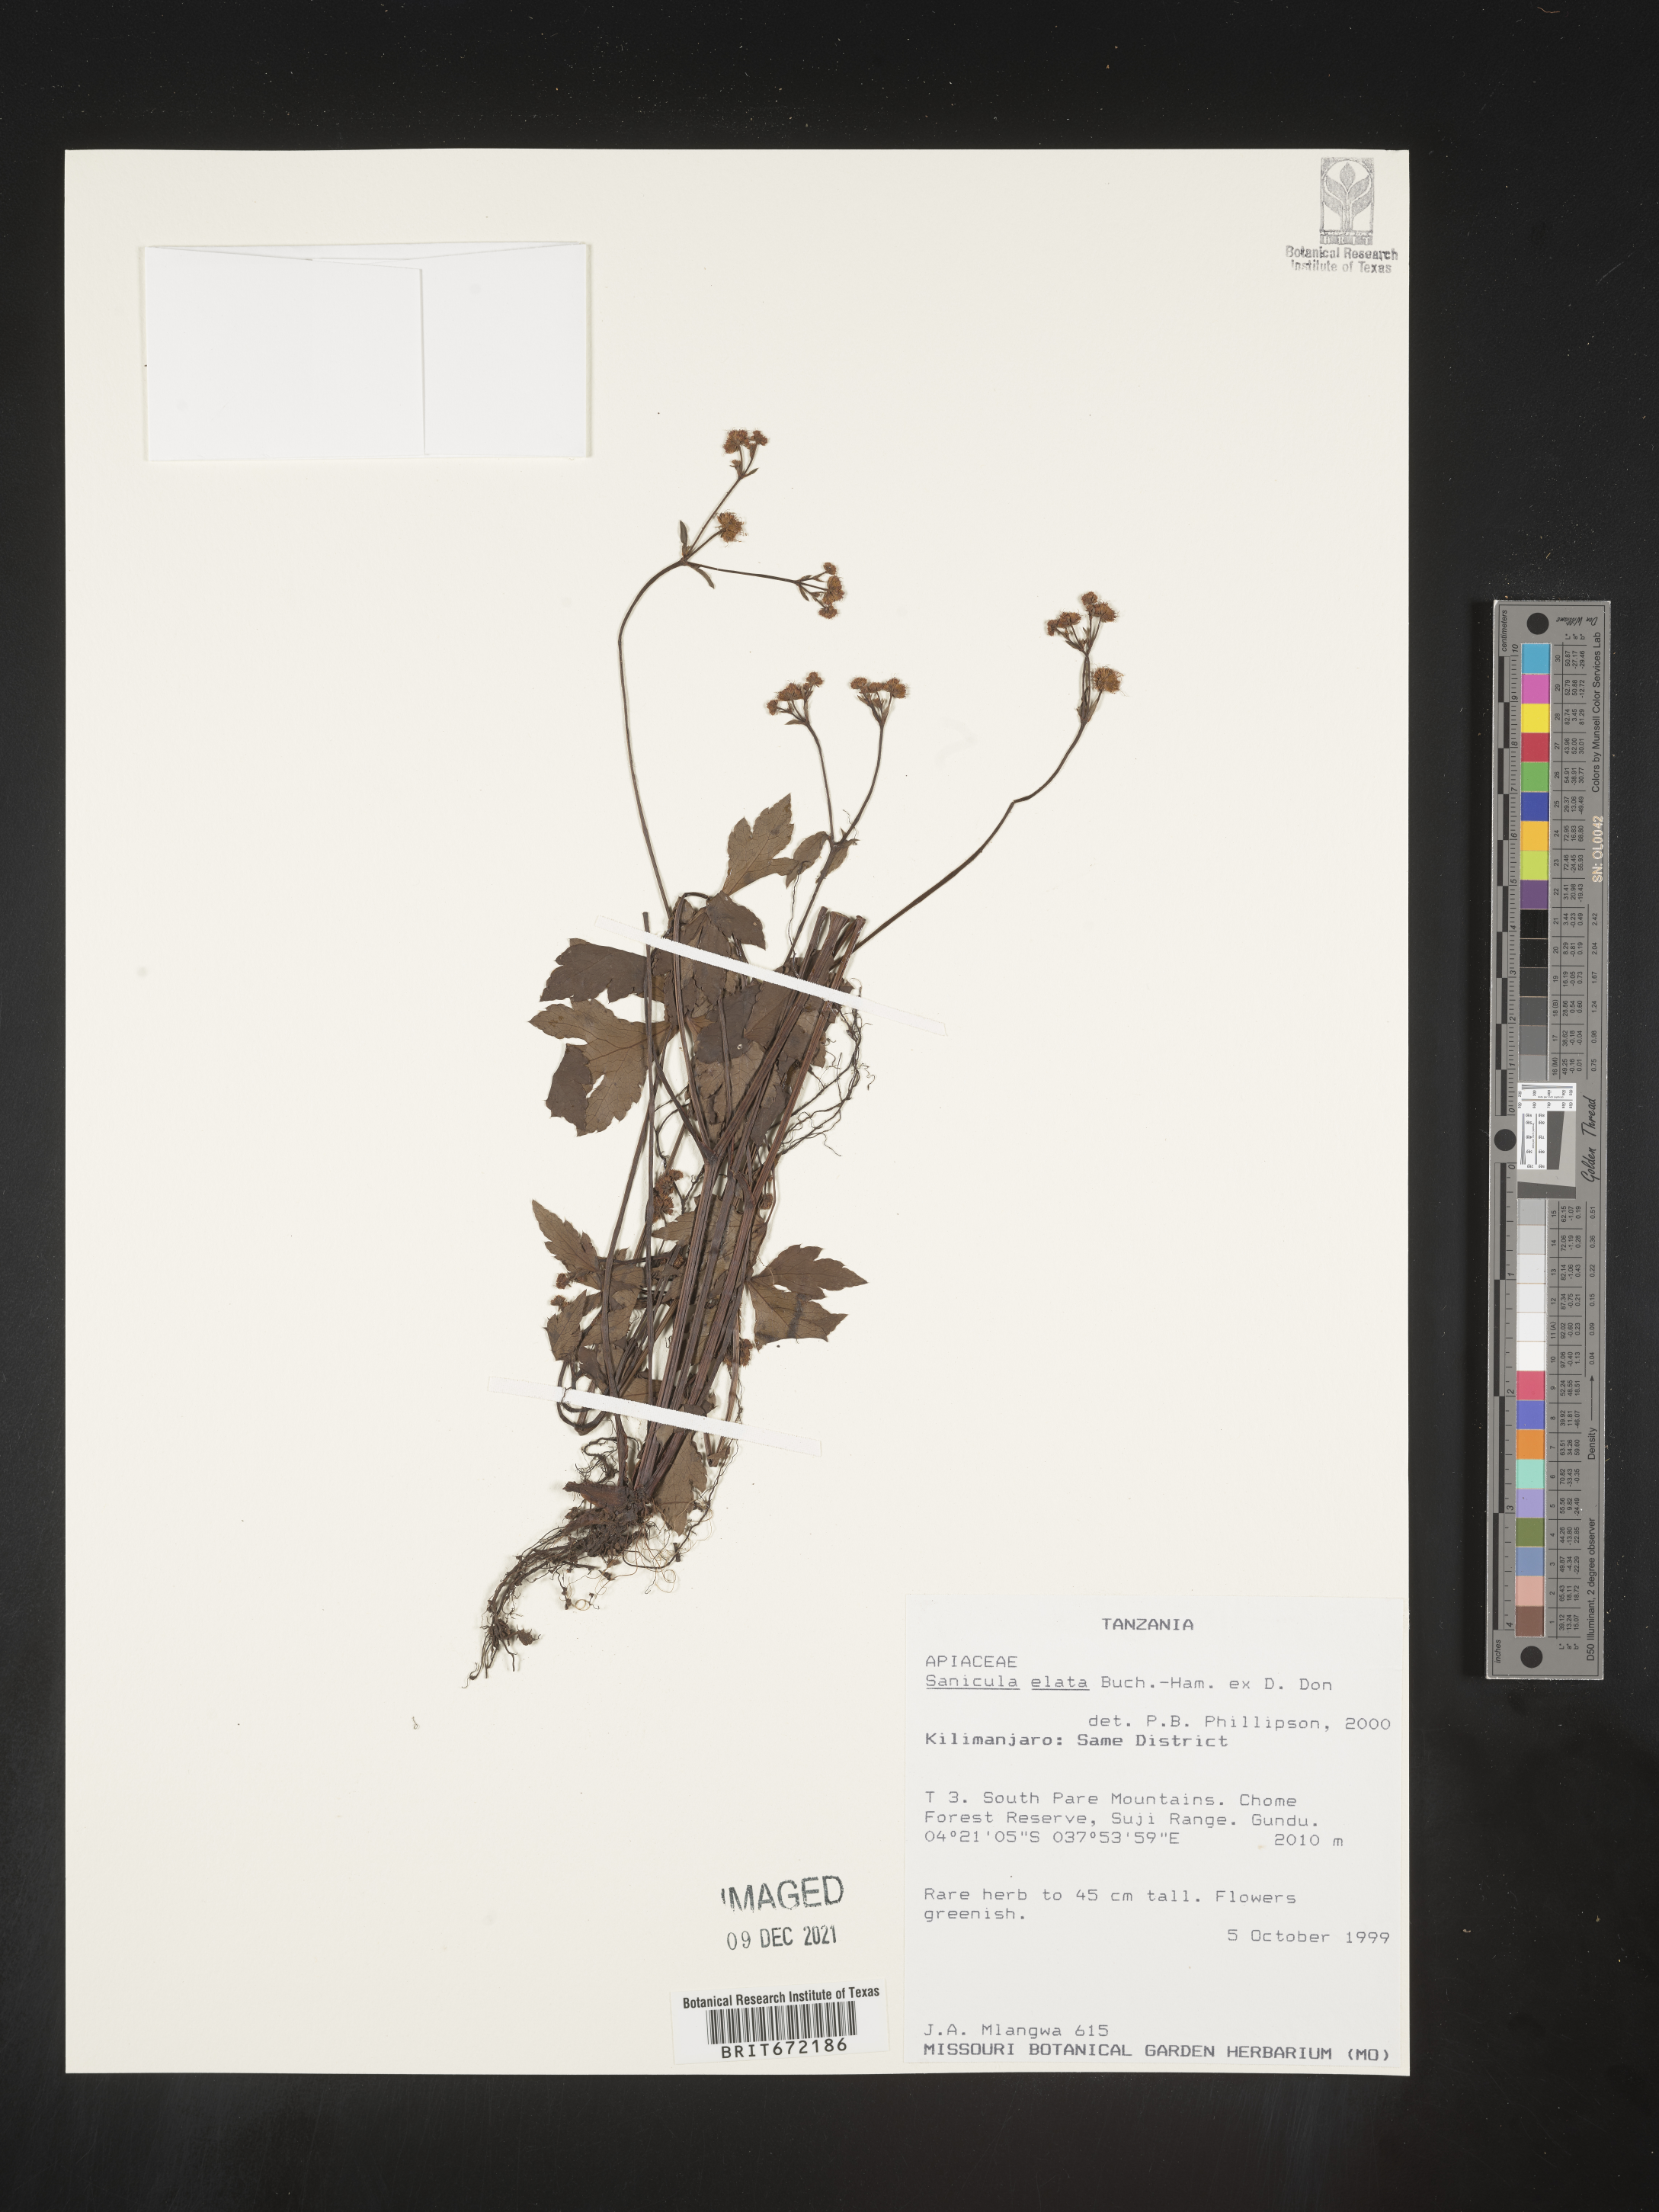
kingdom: Plantae
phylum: Tracheophyta
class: Magnoliopsida
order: Apiales
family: Apiaceae
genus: Sanicula
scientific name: Sanicula
